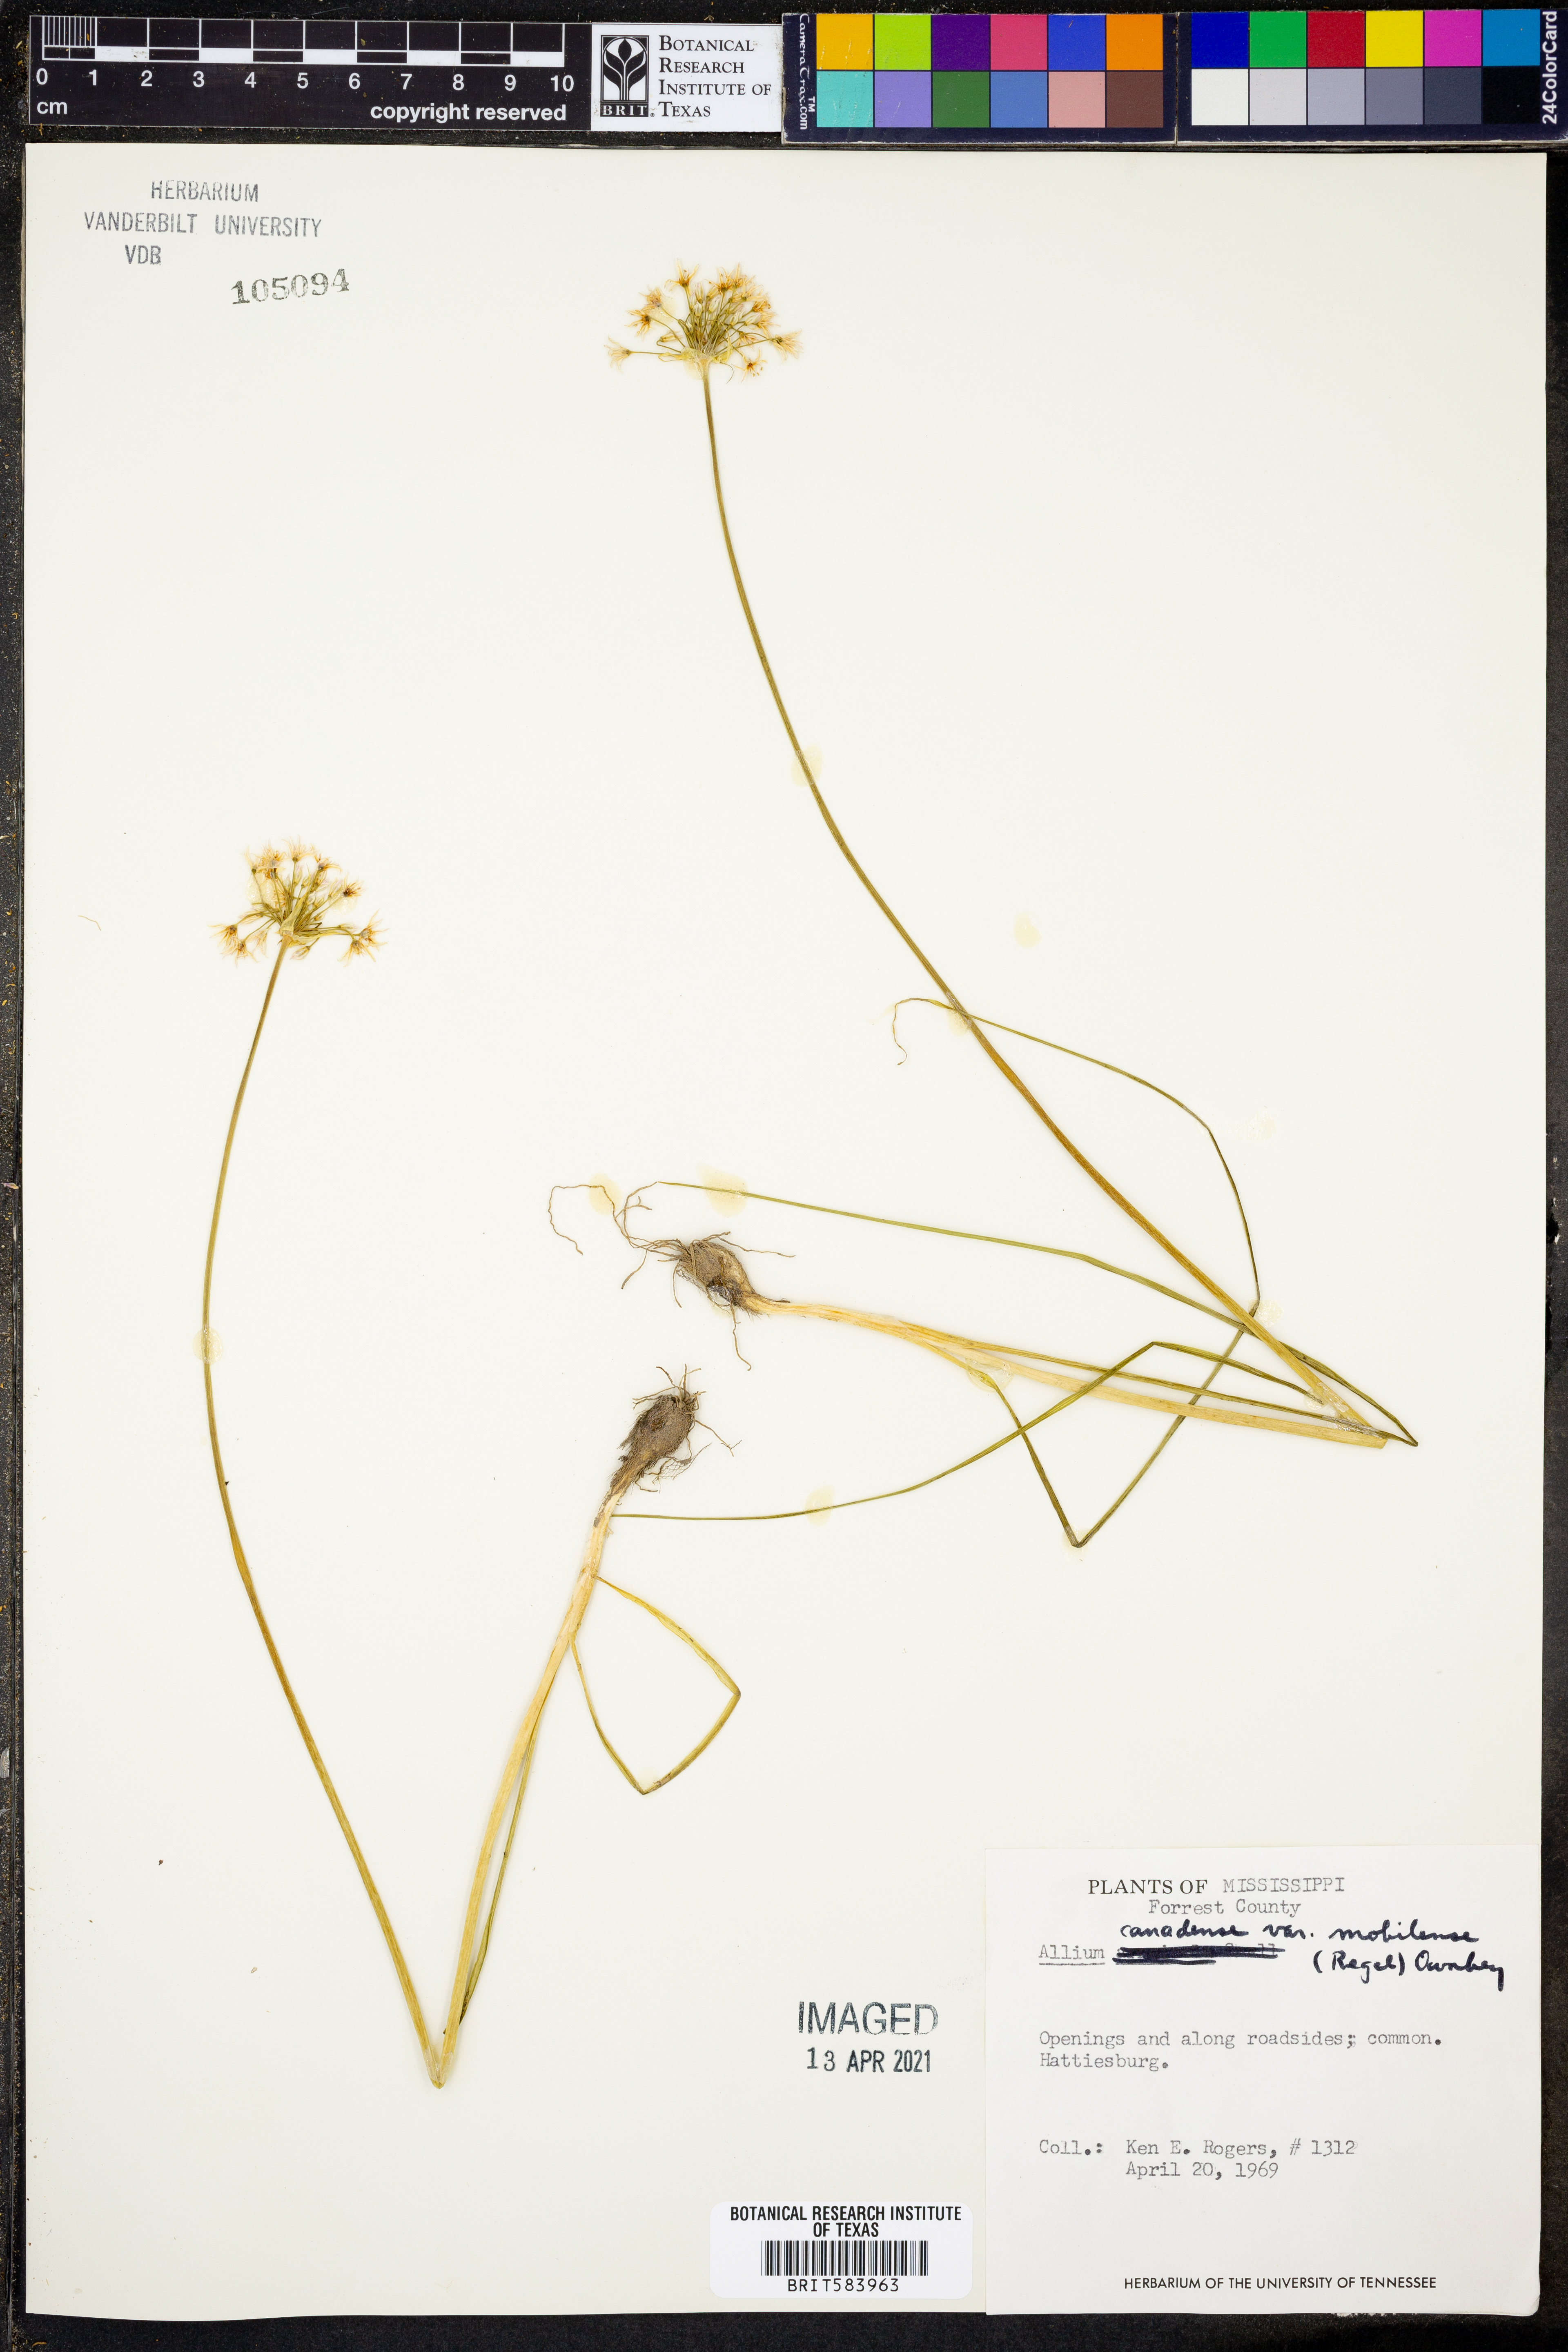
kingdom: Plantae
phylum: Tracheophyta
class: Liliopsida
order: Asparagales
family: Amaryllidaceae
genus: Allium
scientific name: Allium canadense
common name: Meadow garlic
